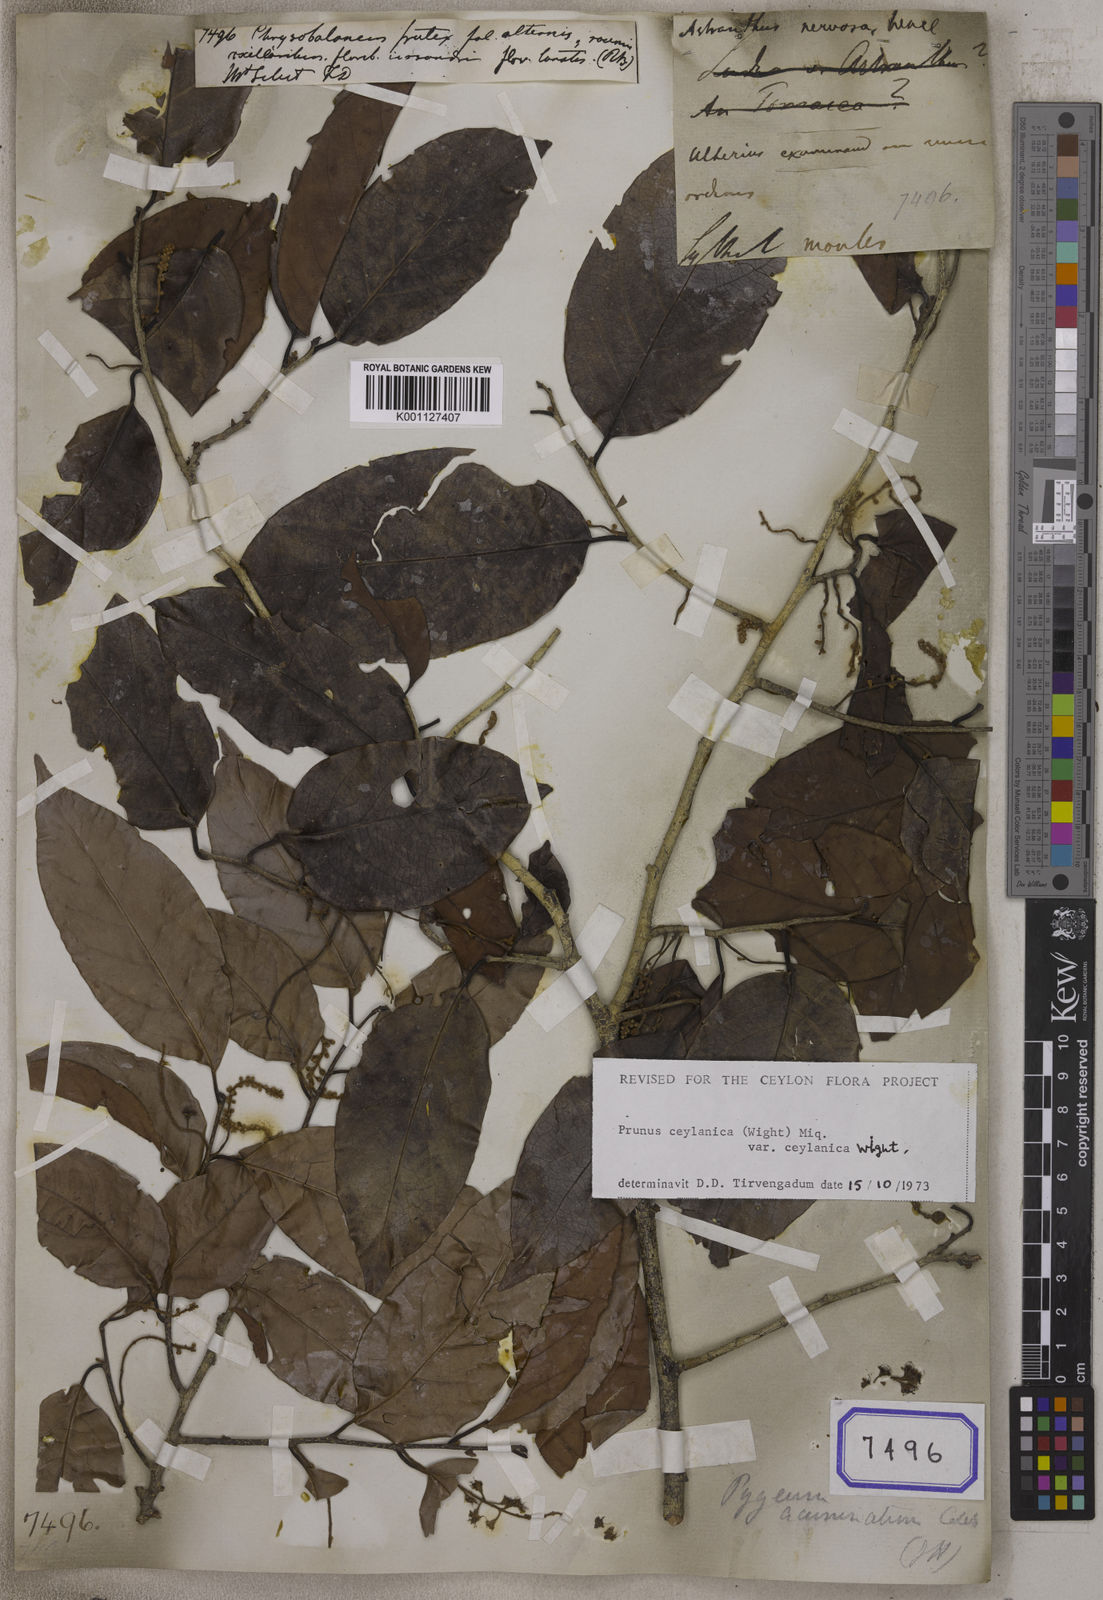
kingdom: Plantae
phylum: Tracheophyta
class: Magnoliopsida
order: Malpighiales
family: Chrysobalanaceae
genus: Chrysobalanus
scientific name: Chrysobalanus
